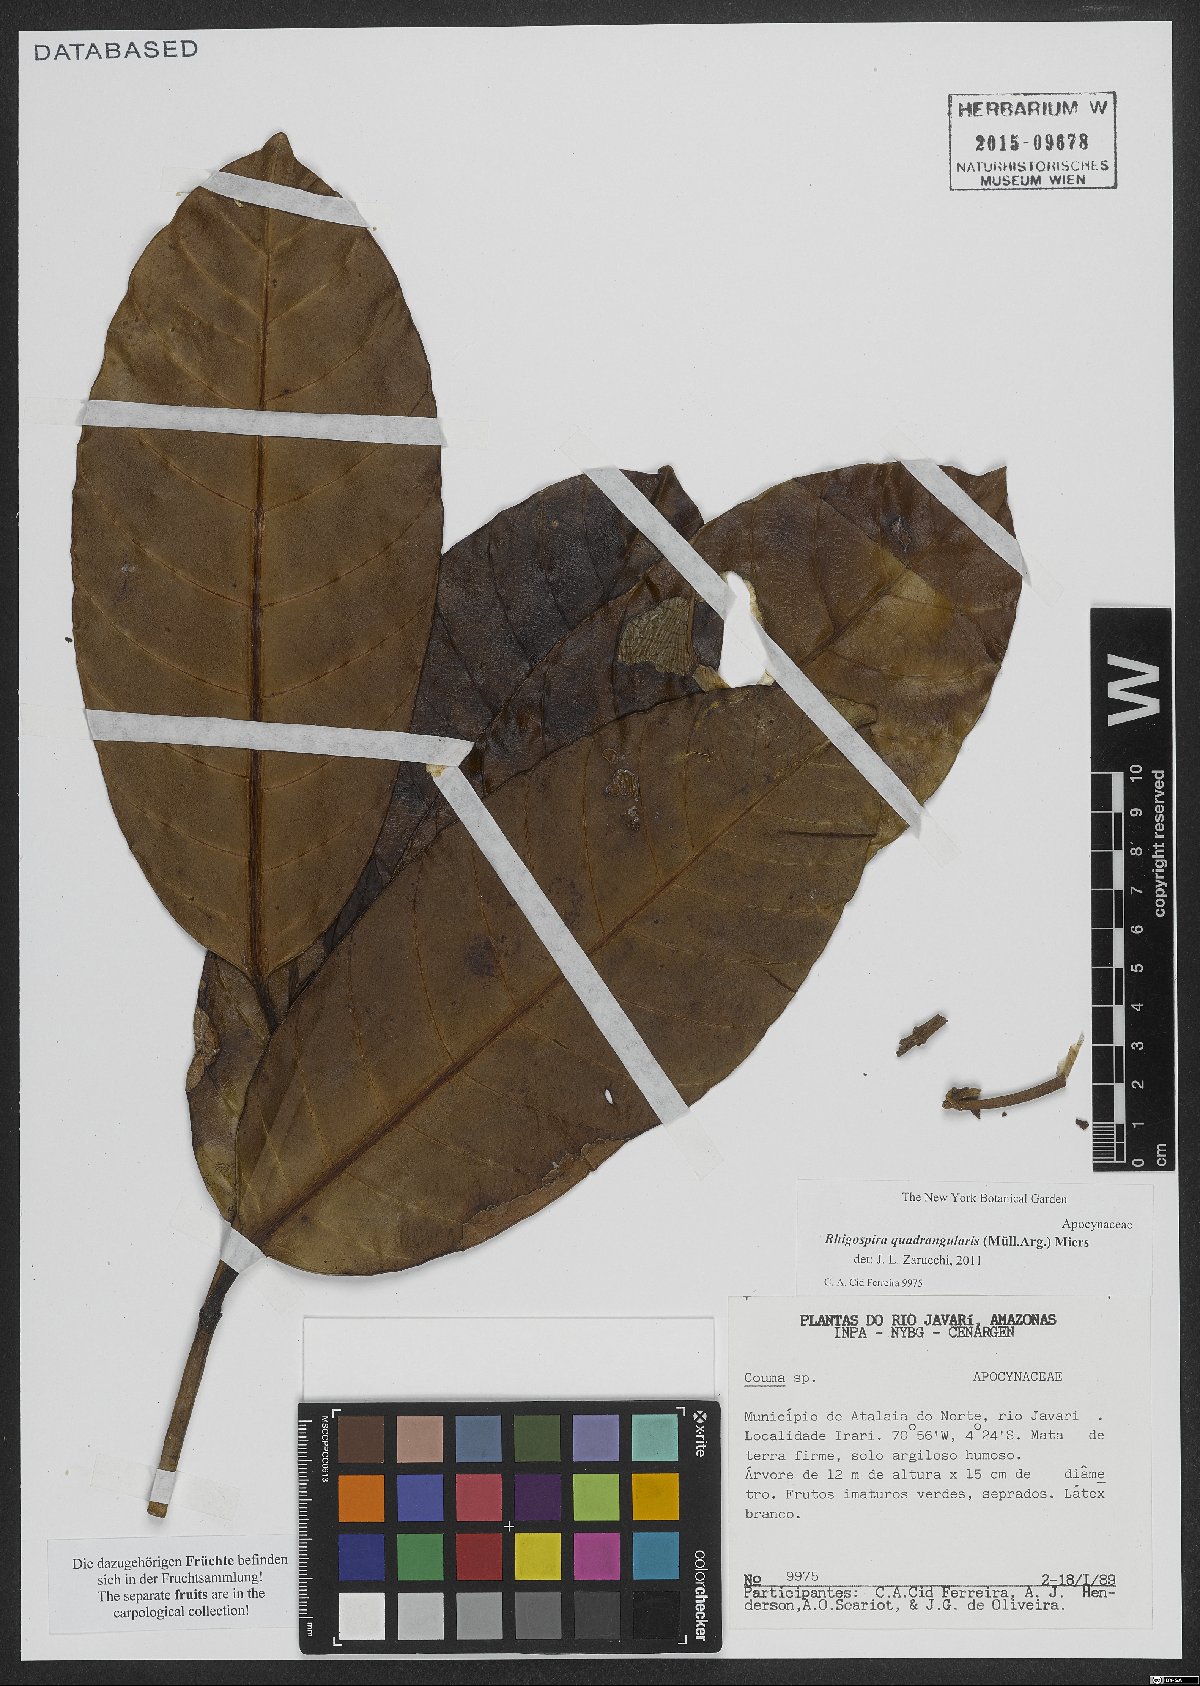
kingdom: Plantae
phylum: Tracheophyta
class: Magnoliopsida
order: Gentianales
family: Apocynaceae
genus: Rhigospira
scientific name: Rhigospira quadrangularis
